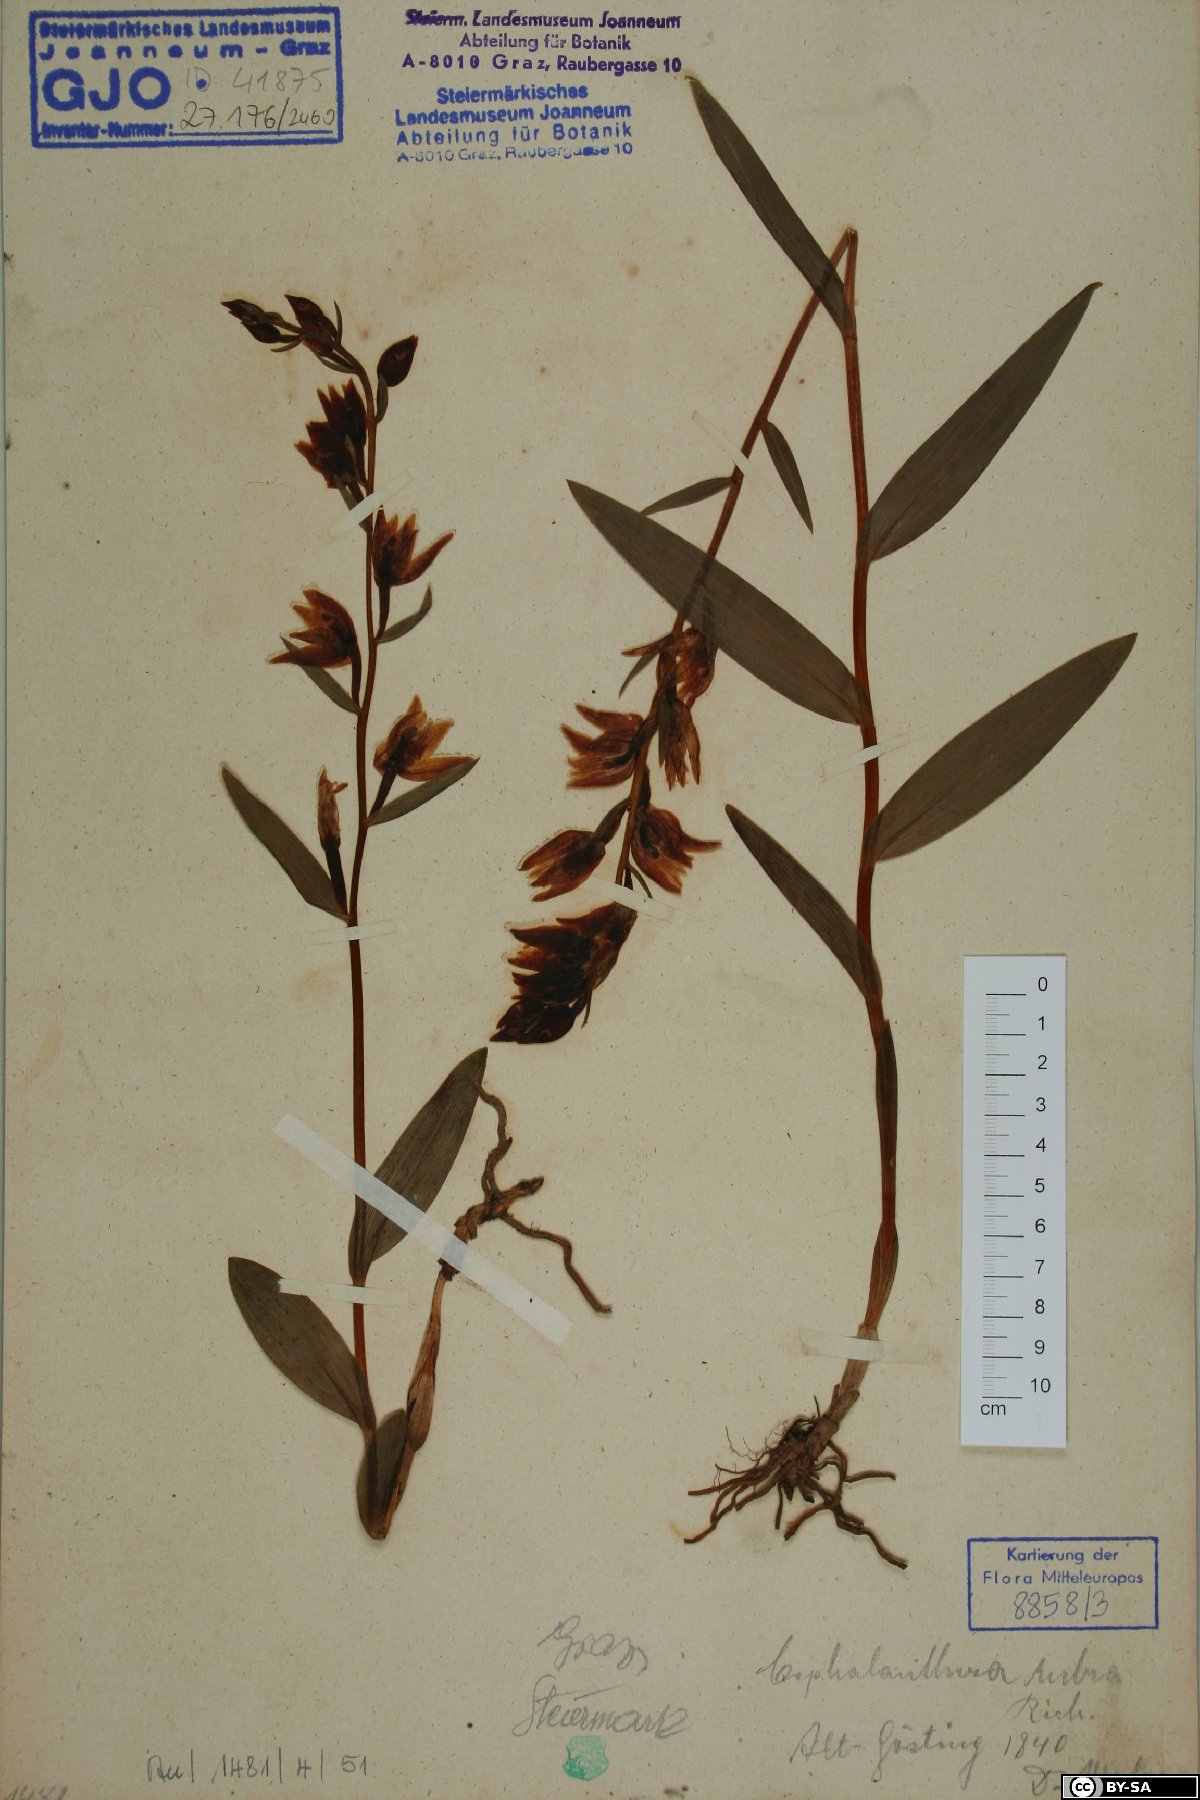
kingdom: Plantae
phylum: Tracheophyta
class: Liliopsida
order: Asparagales
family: Orchidaceae
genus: Cephalanthera
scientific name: Cephalanthera rubra
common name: Red helleborine
